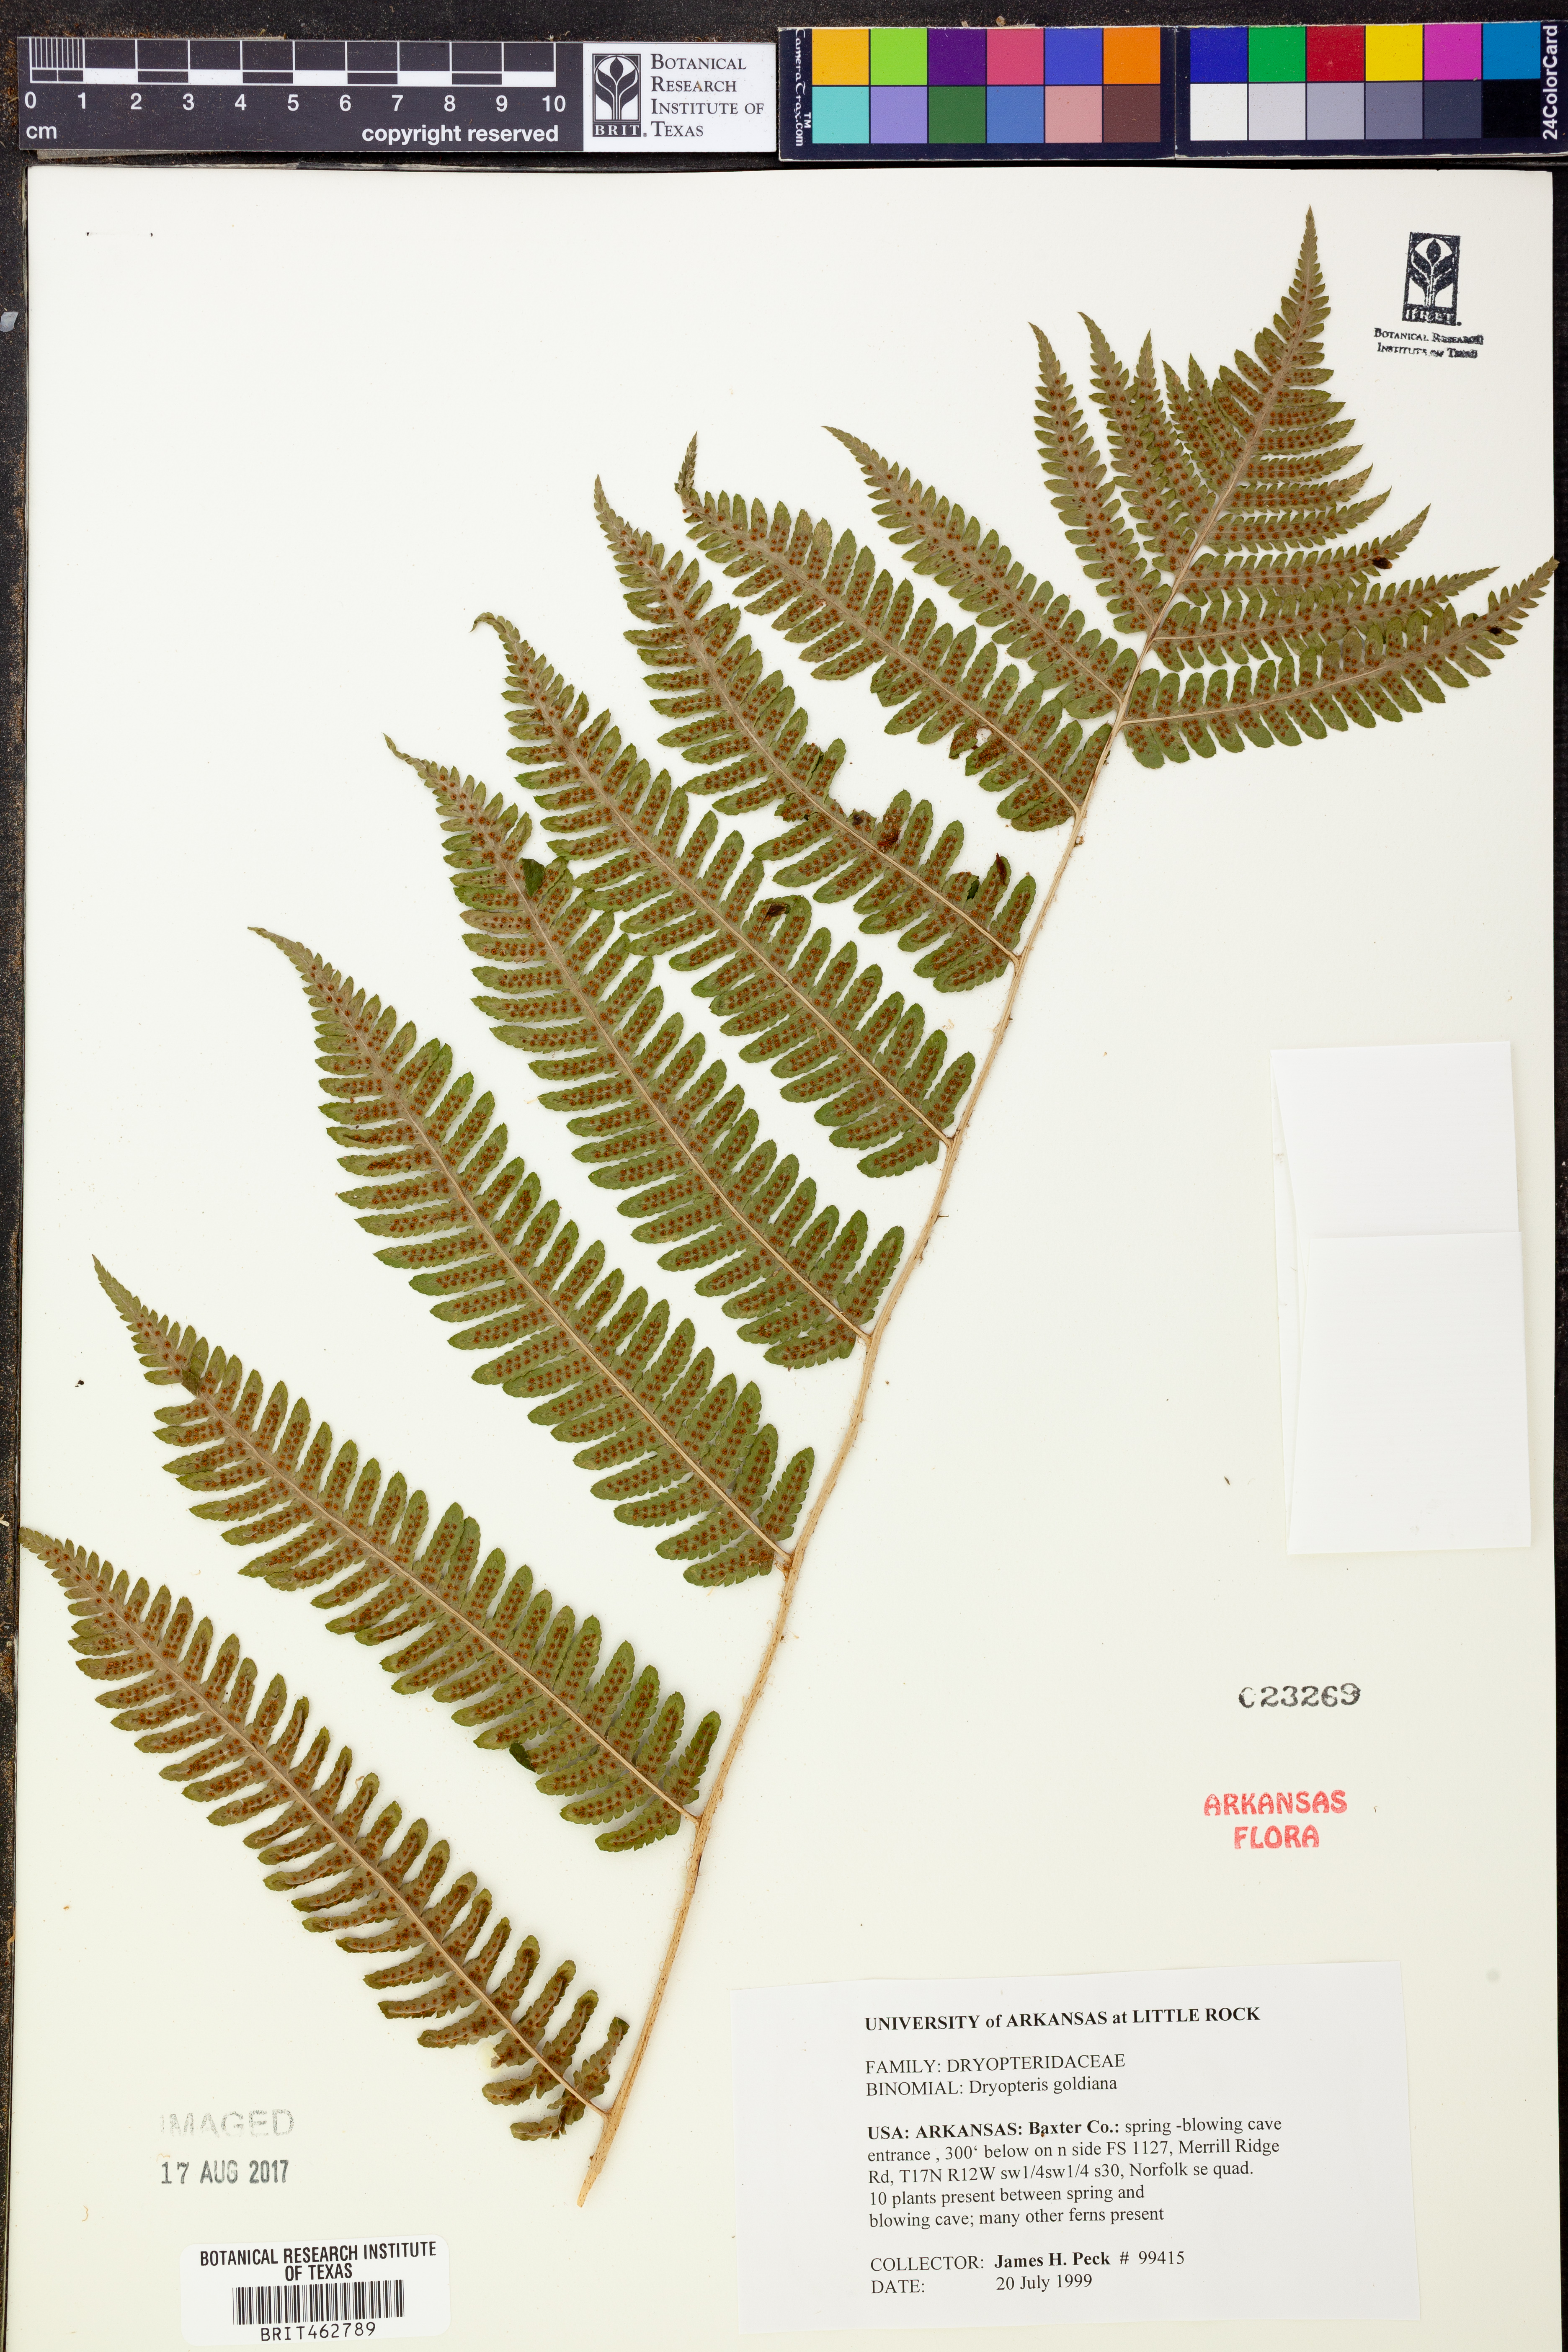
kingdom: Plantae
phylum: Tracheophyta
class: Polypodiopsida
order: Polypodiales
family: Dryopteridaceae
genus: Dryopteris
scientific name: Dryopteris goeldiana
